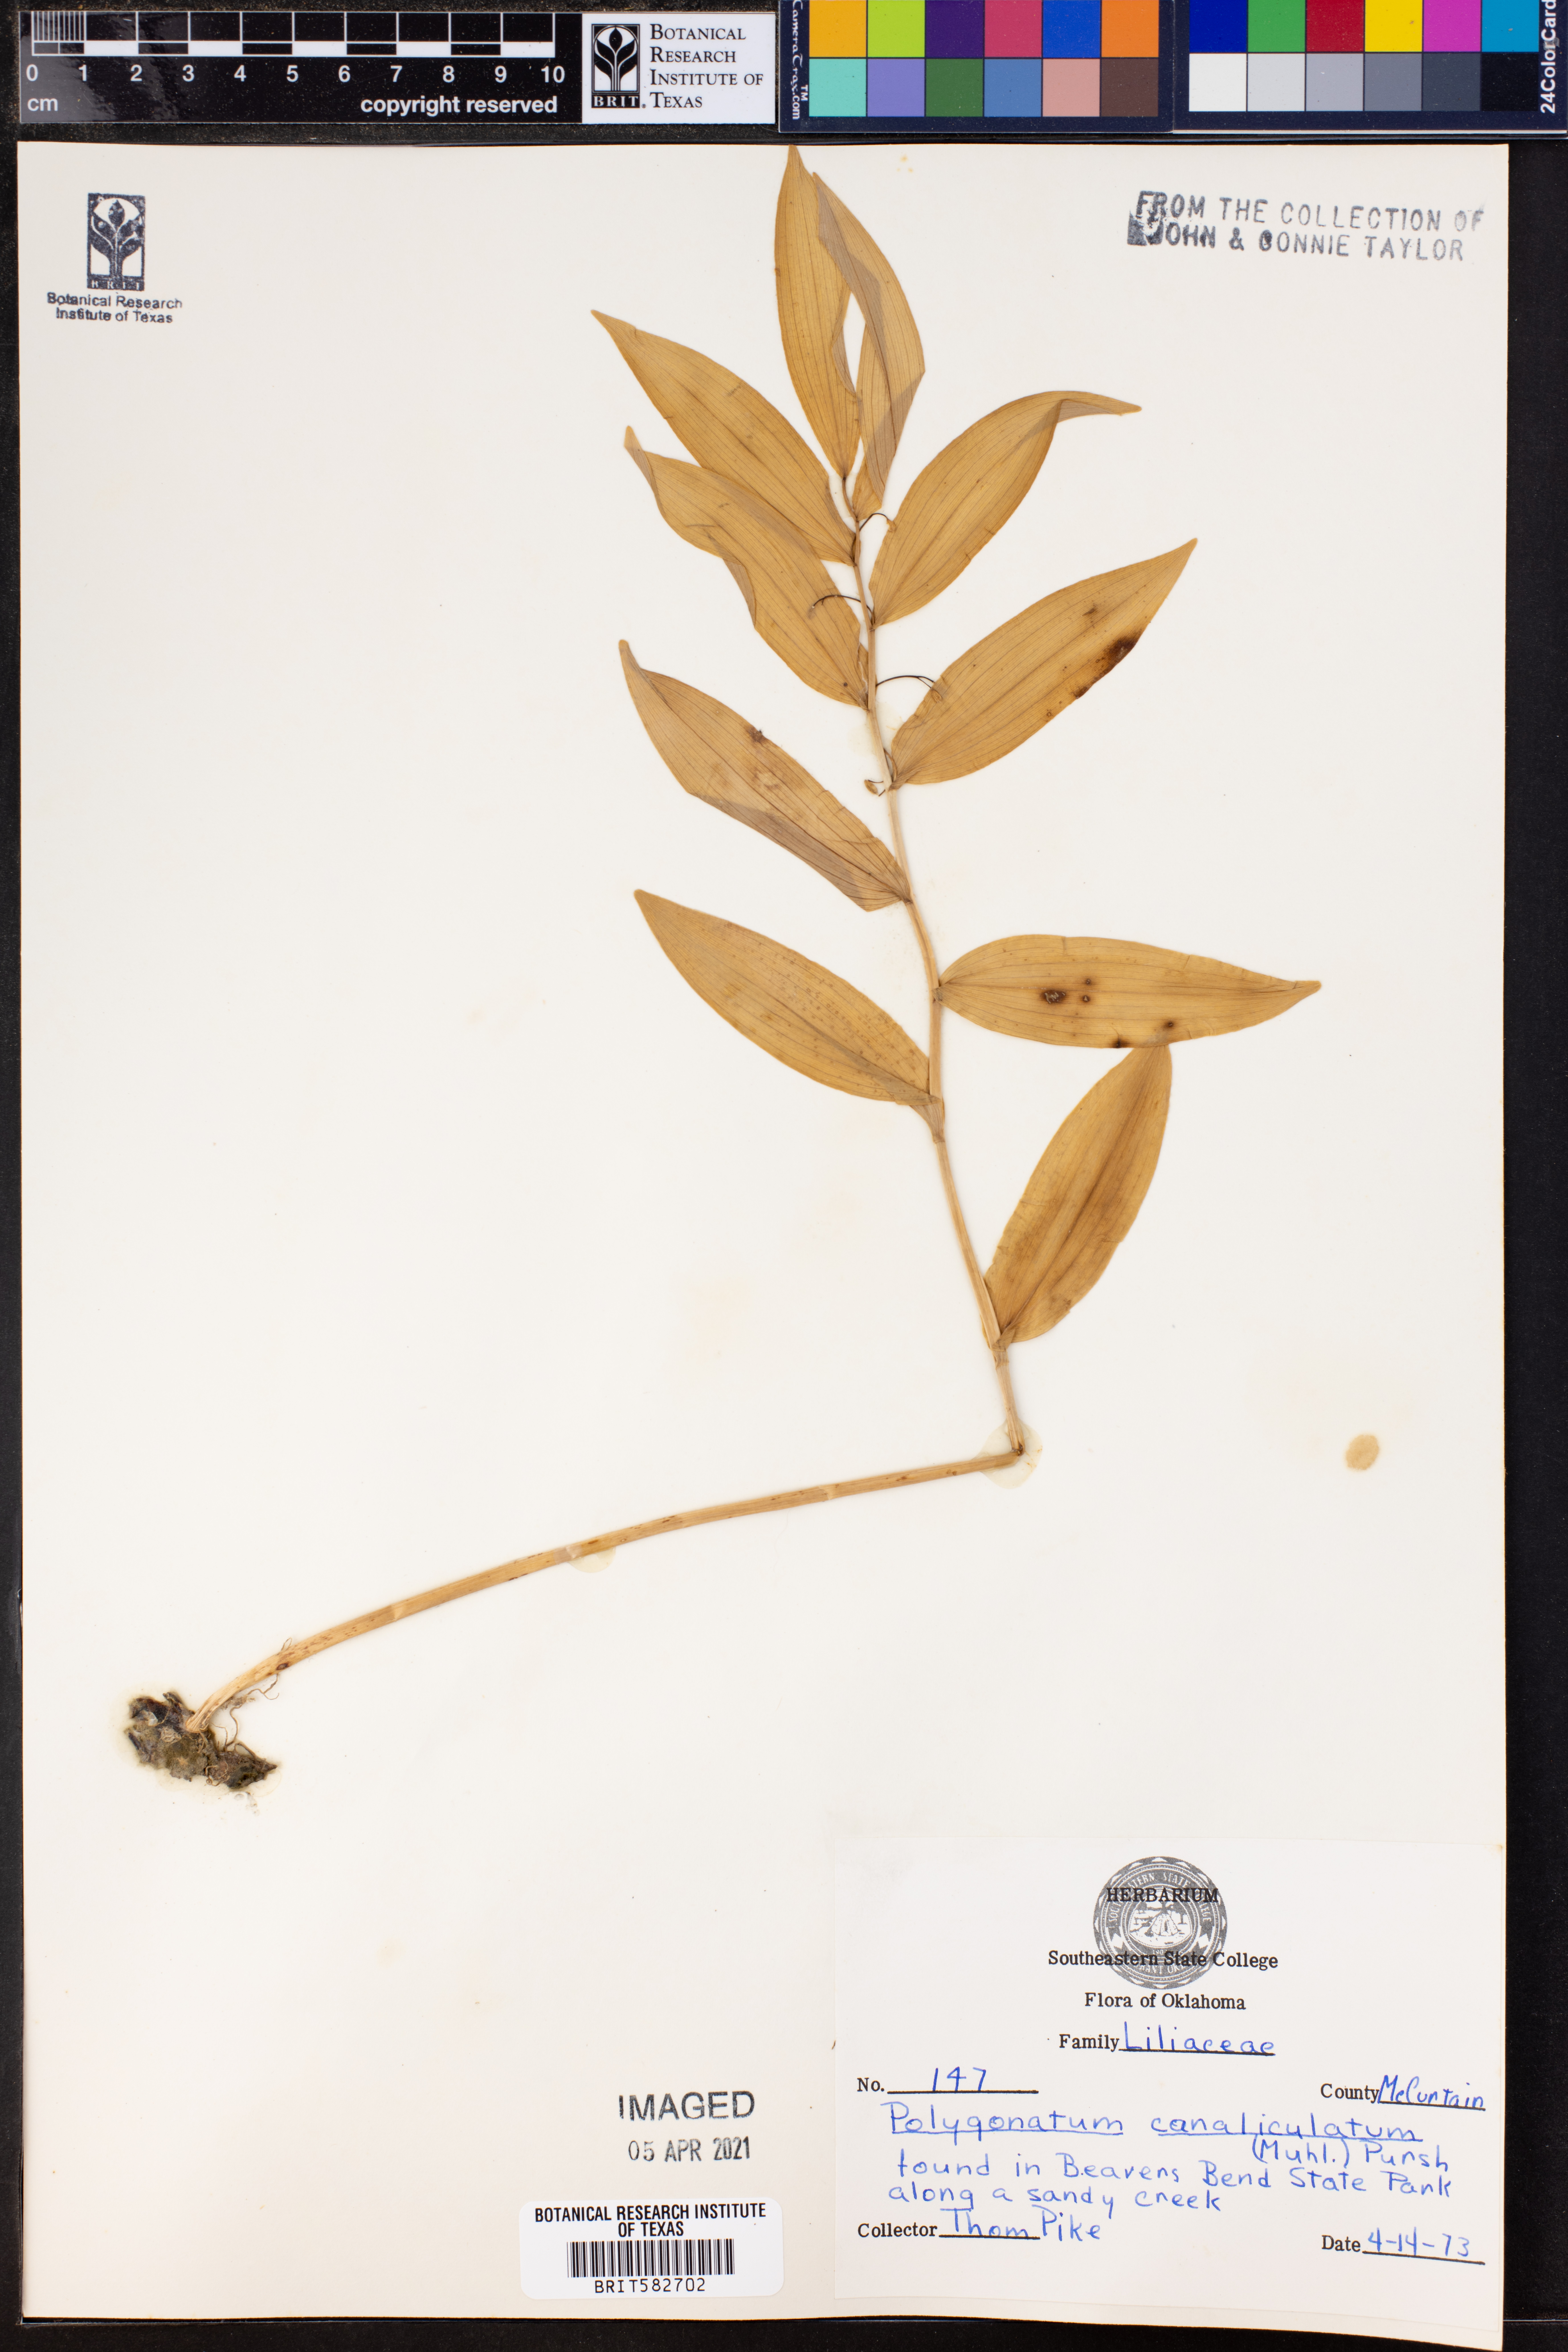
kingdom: Plantae
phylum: Tracheophyta
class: Liliopsida
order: Asparagales
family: Asparagaceae
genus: Polygonatum
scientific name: Polygonatum biflorum
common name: American solomon's-seal
